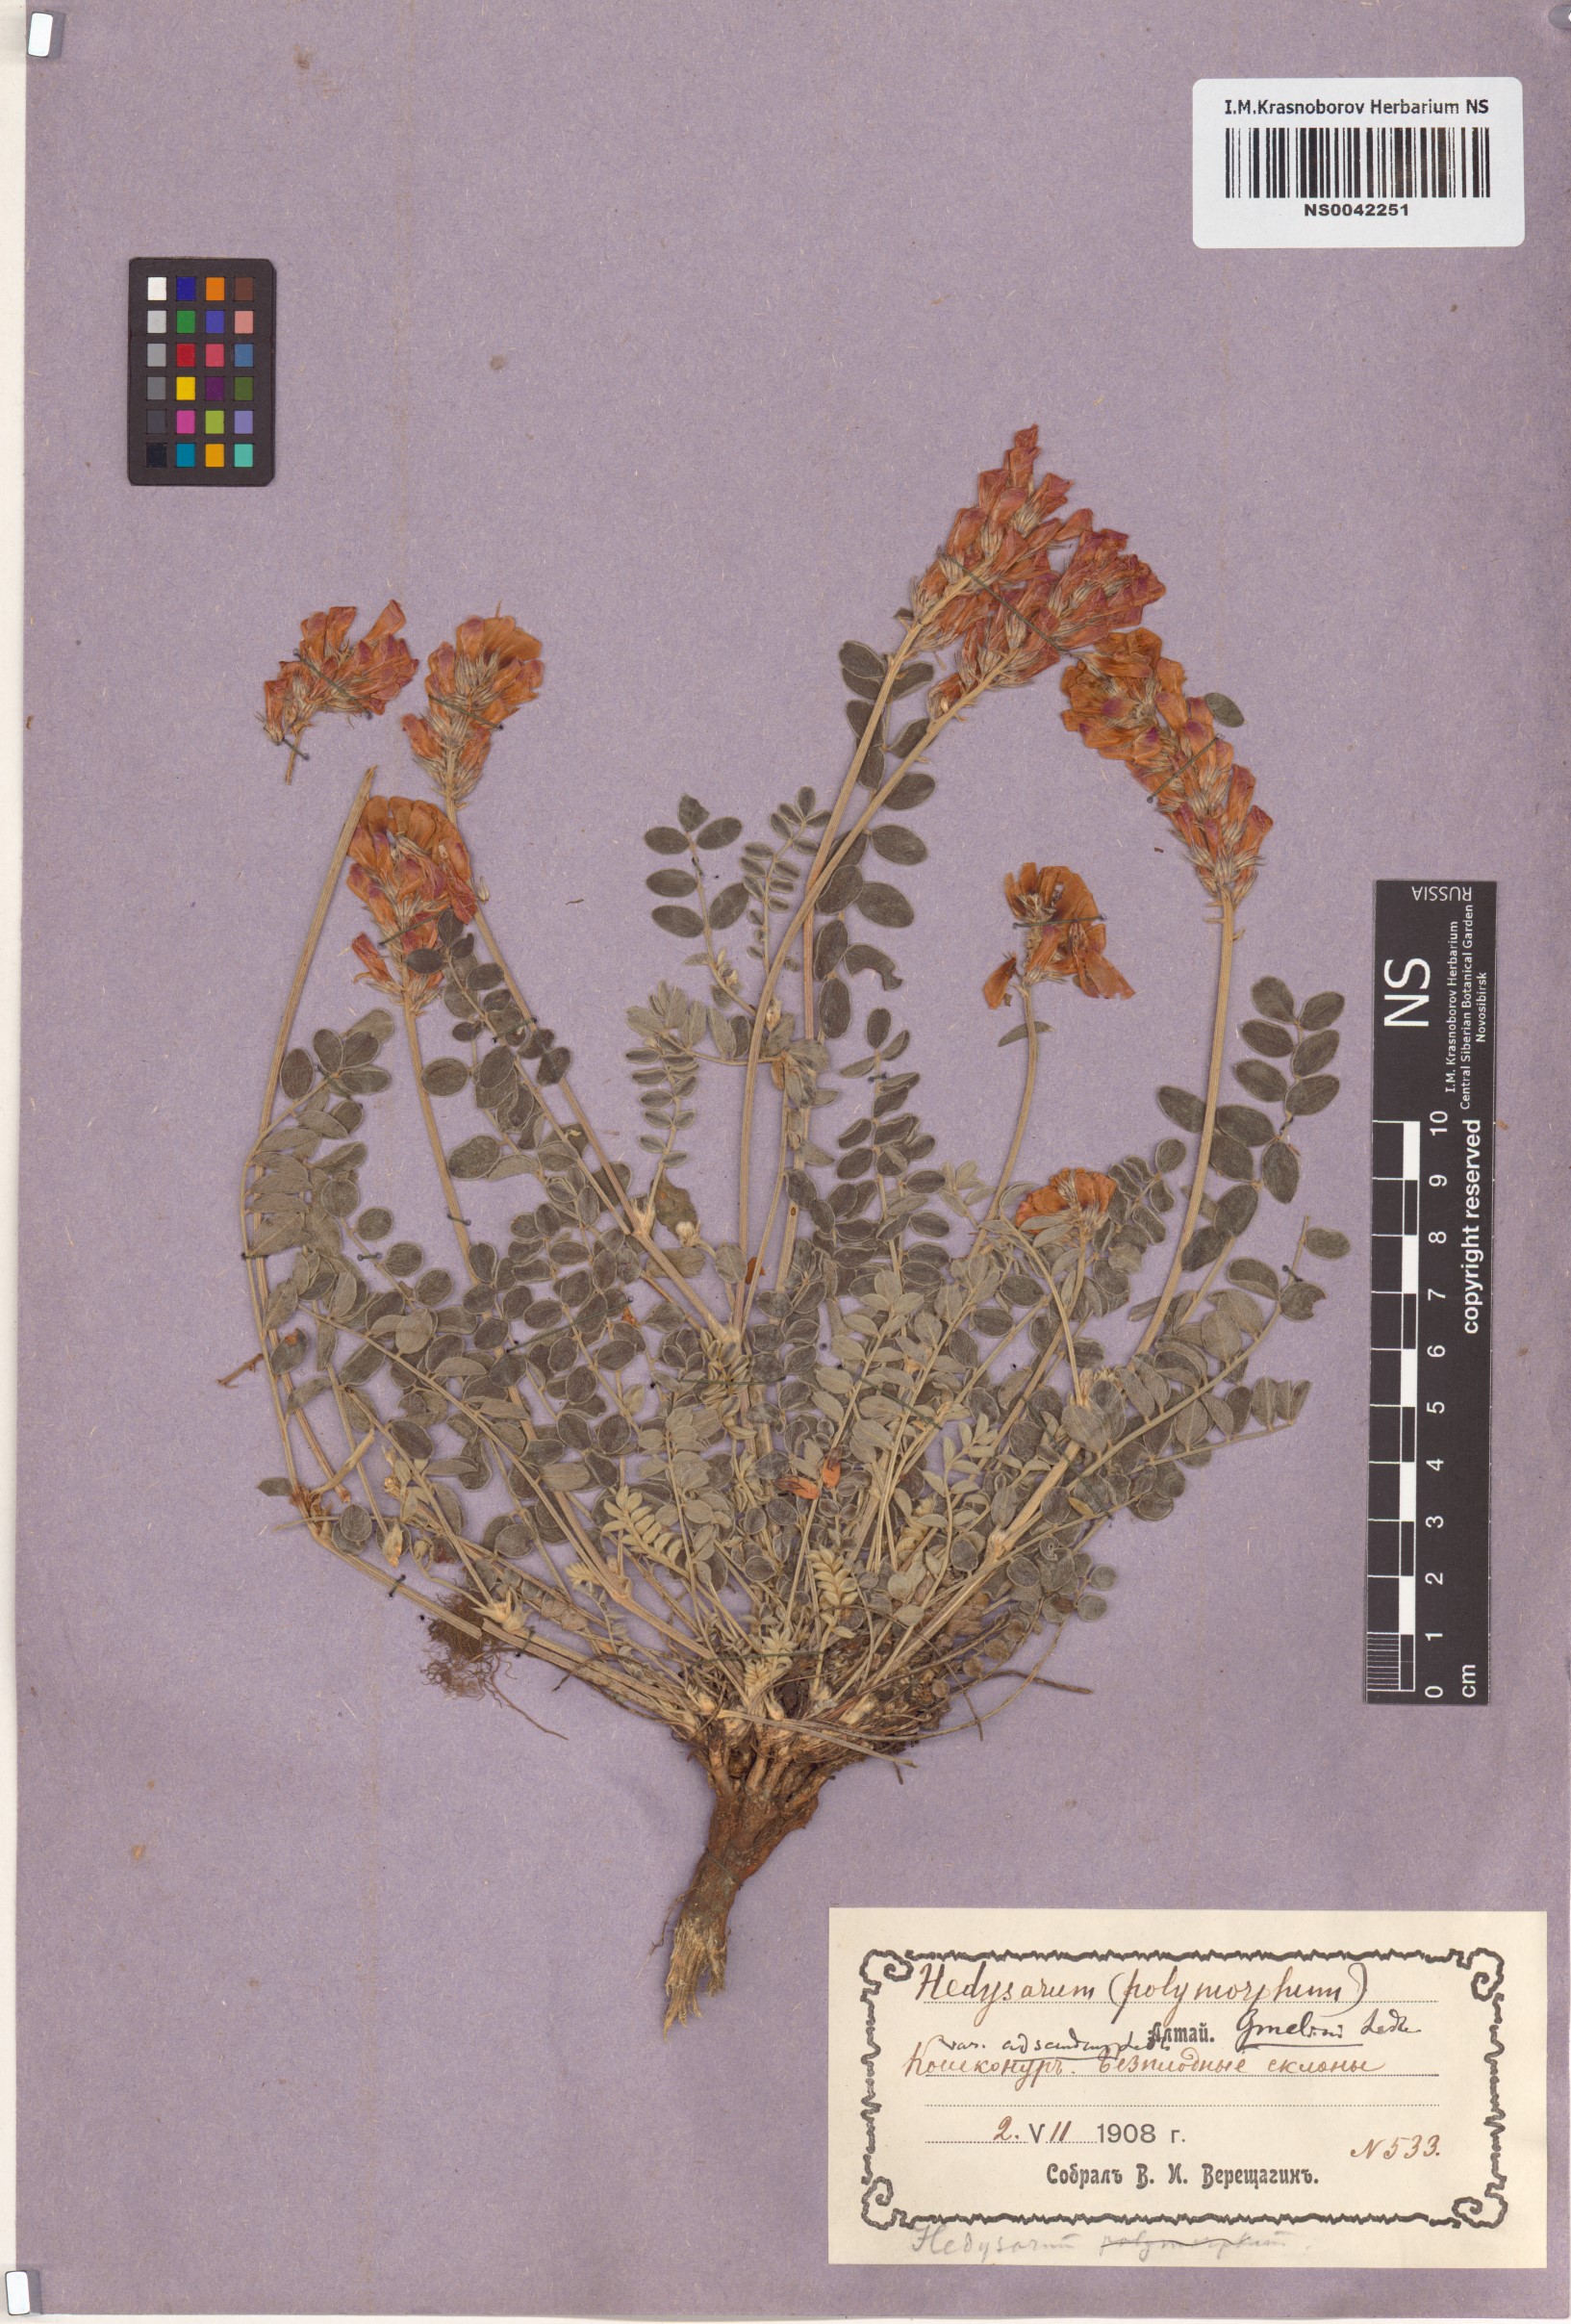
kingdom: Plantae
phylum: Tracheophyta
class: Magnoliopsida
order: Fabales
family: Fabaceae
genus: Hedysarum
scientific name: Hedysarum gmelinii
